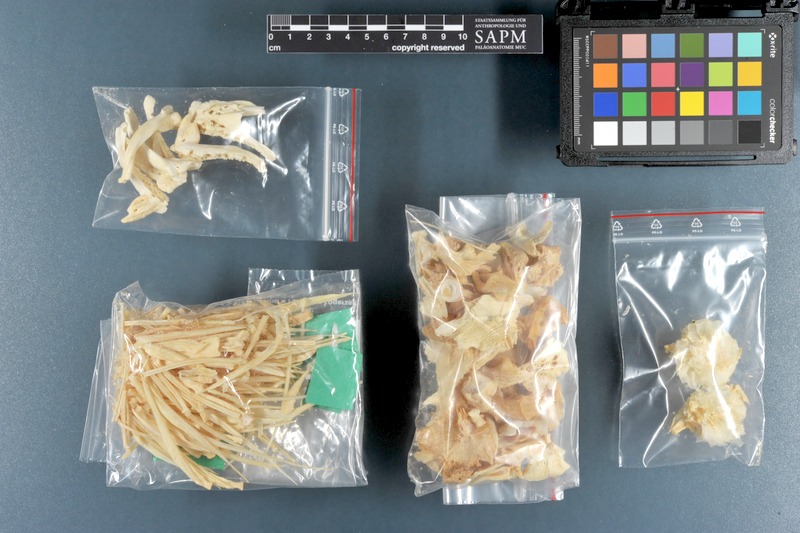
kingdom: Animalia
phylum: Chordata
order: Perciformes
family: Osphronemidae
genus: Osphronemus
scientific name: Osphronemus goramy
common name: Giant gourami
